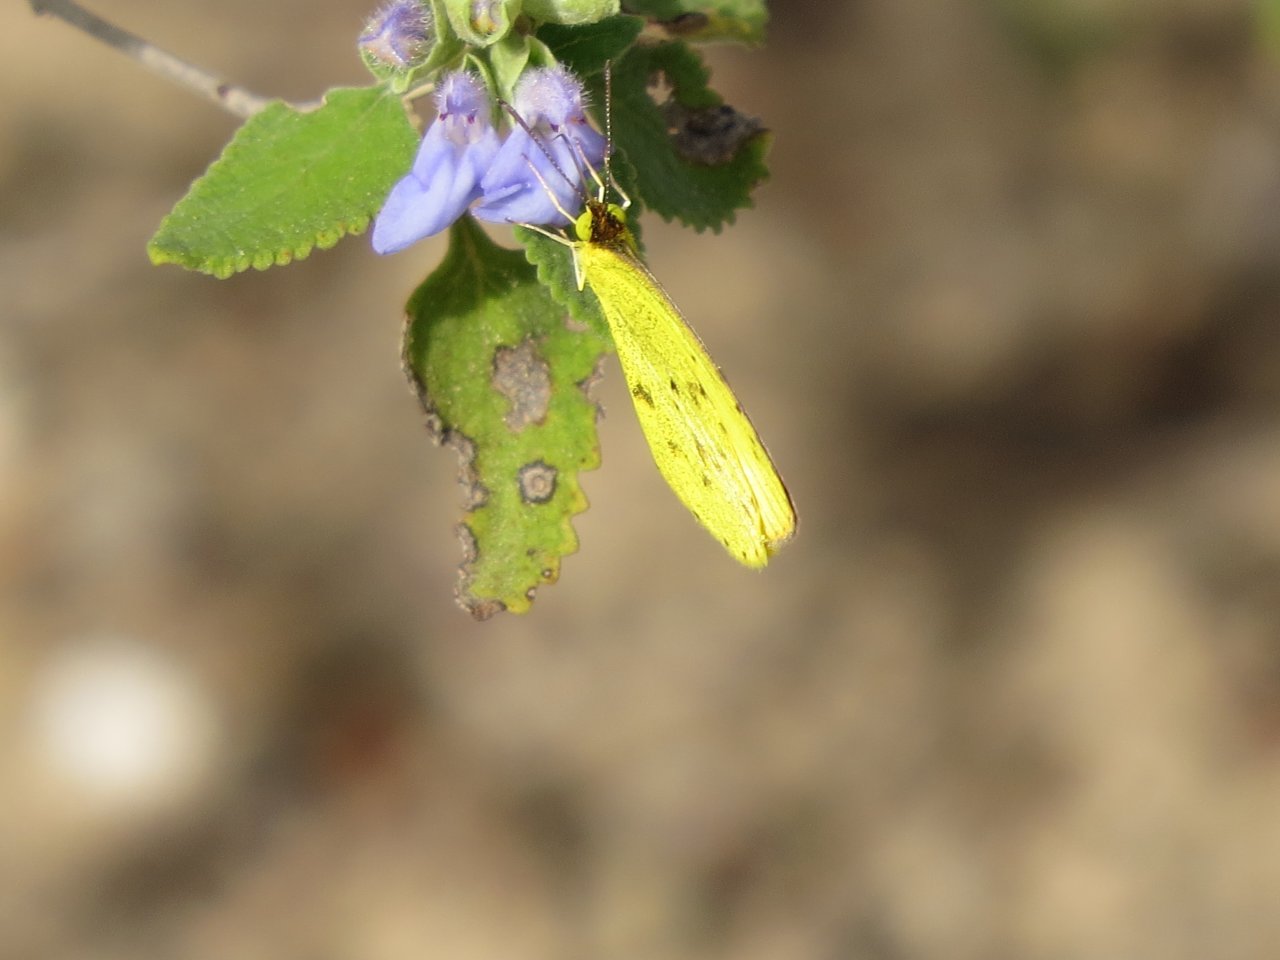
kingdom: Animalia
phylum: Arthropoda
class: Insecta
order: Lepidoptera
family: Pieridae
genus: Pyrisitia
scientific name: Pyrisitia lisa
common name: Little Yellow
